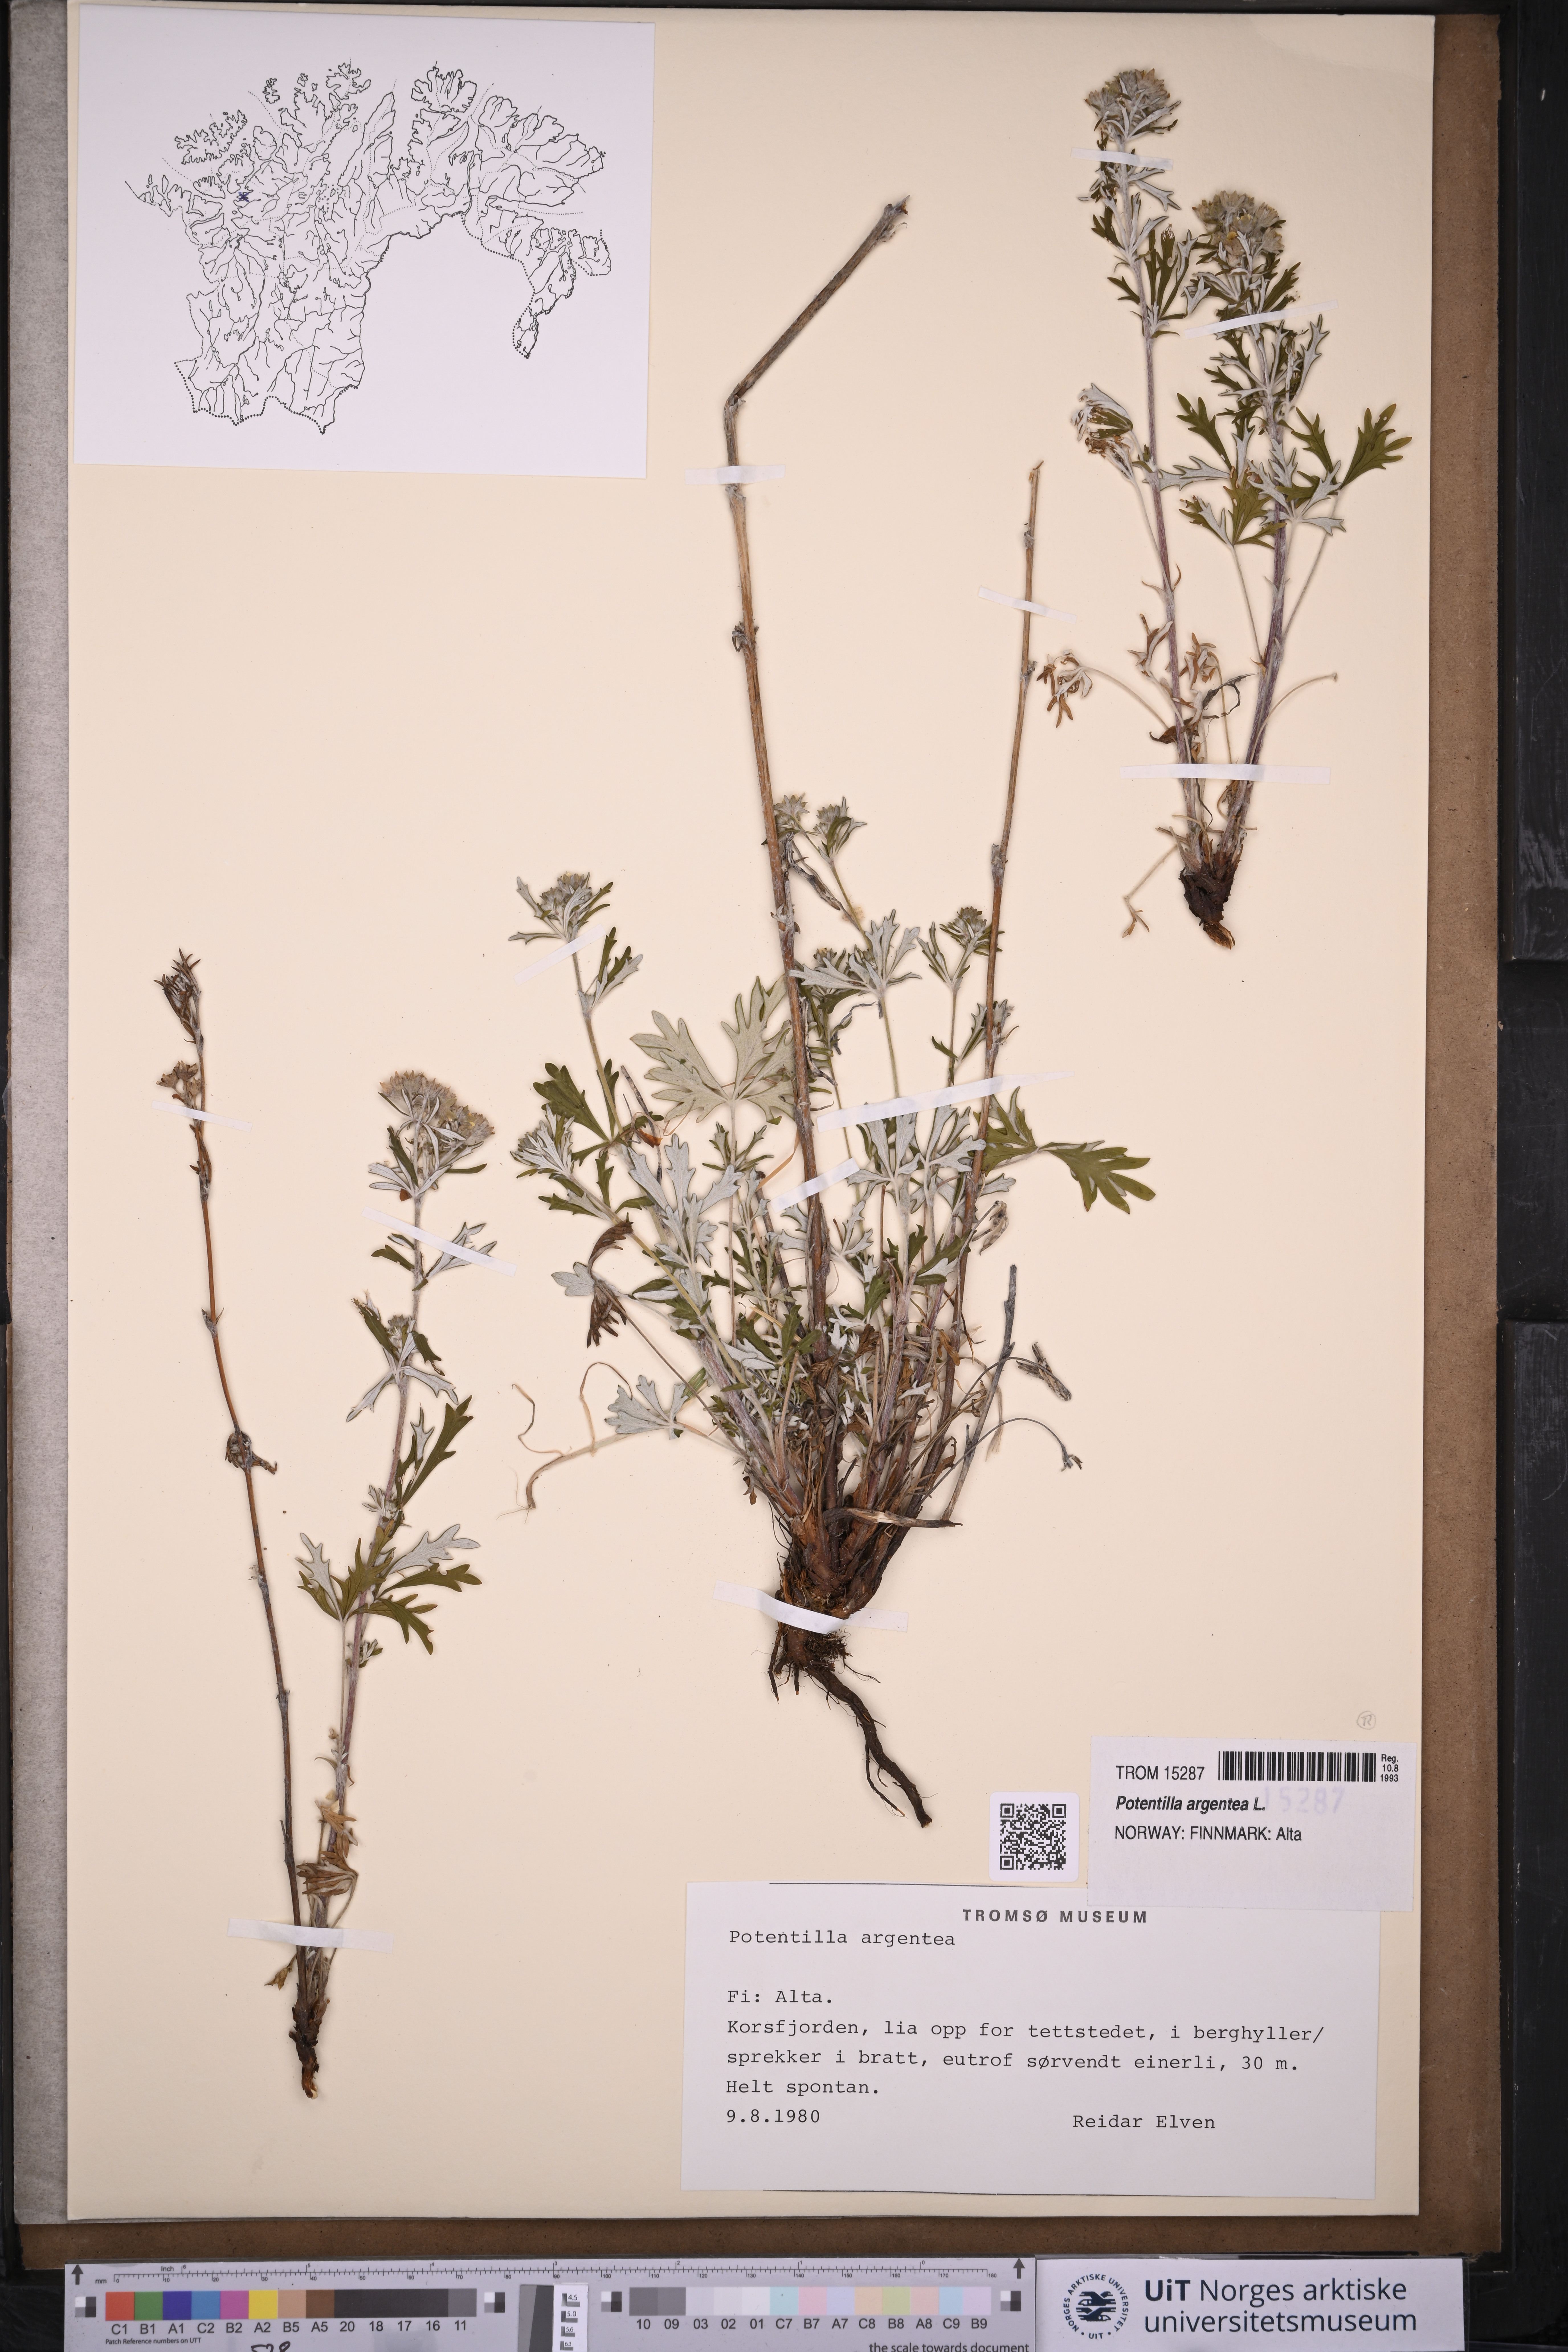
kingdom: Plantae
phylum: Tracheophyta
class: Magnoliopsida
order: Rosales
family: Rosaceae
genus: Potentilla
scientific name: Potentilla argentea
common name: Hoary cinquefoil
